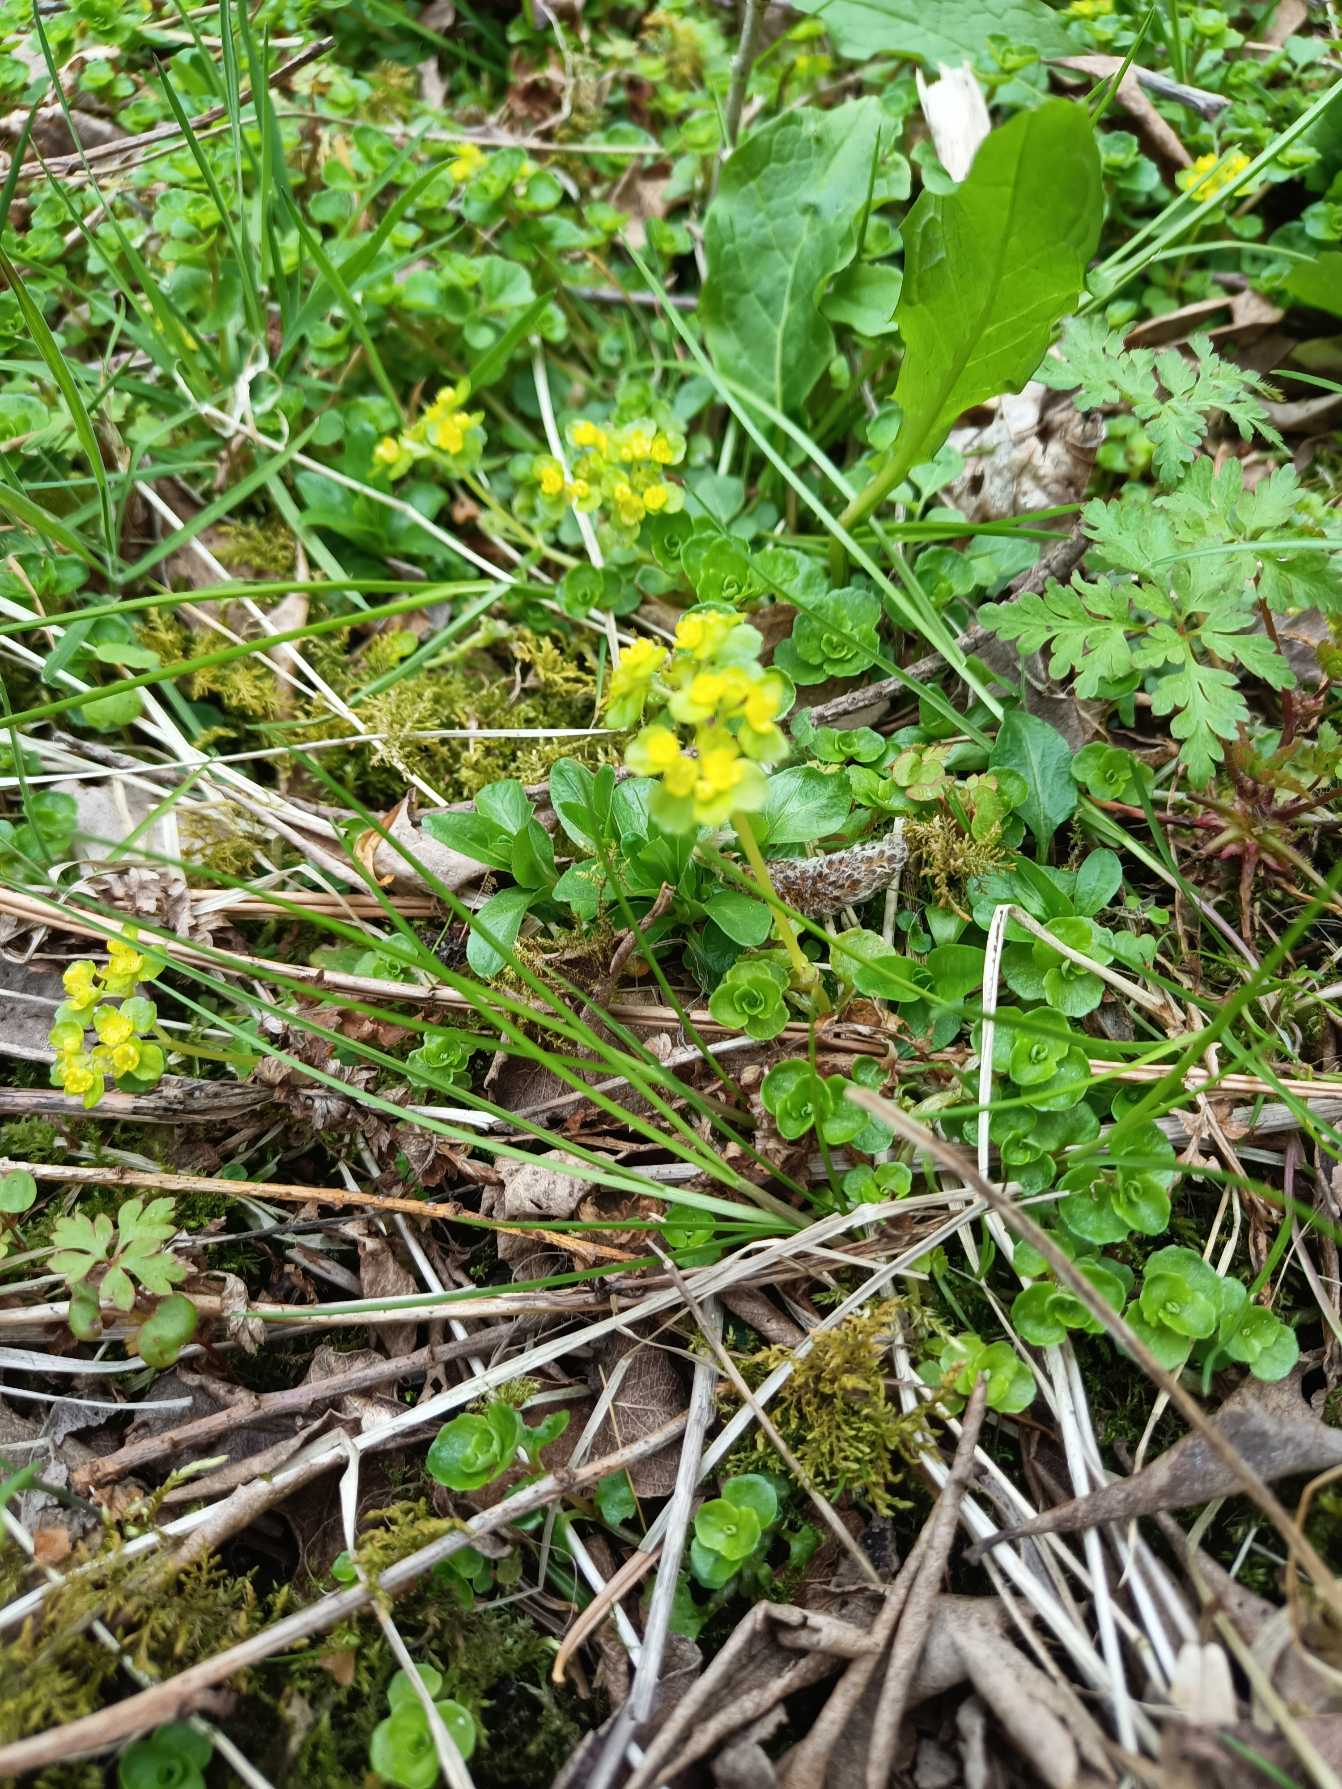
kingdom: Plantae
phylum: Tracheophyta
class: Magnoliopsida
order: Saxifragales
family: Saxifragaceae
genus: Chrysosplenium
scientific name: Chrysosplenium oppositifolium
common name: Småbladet milturt
